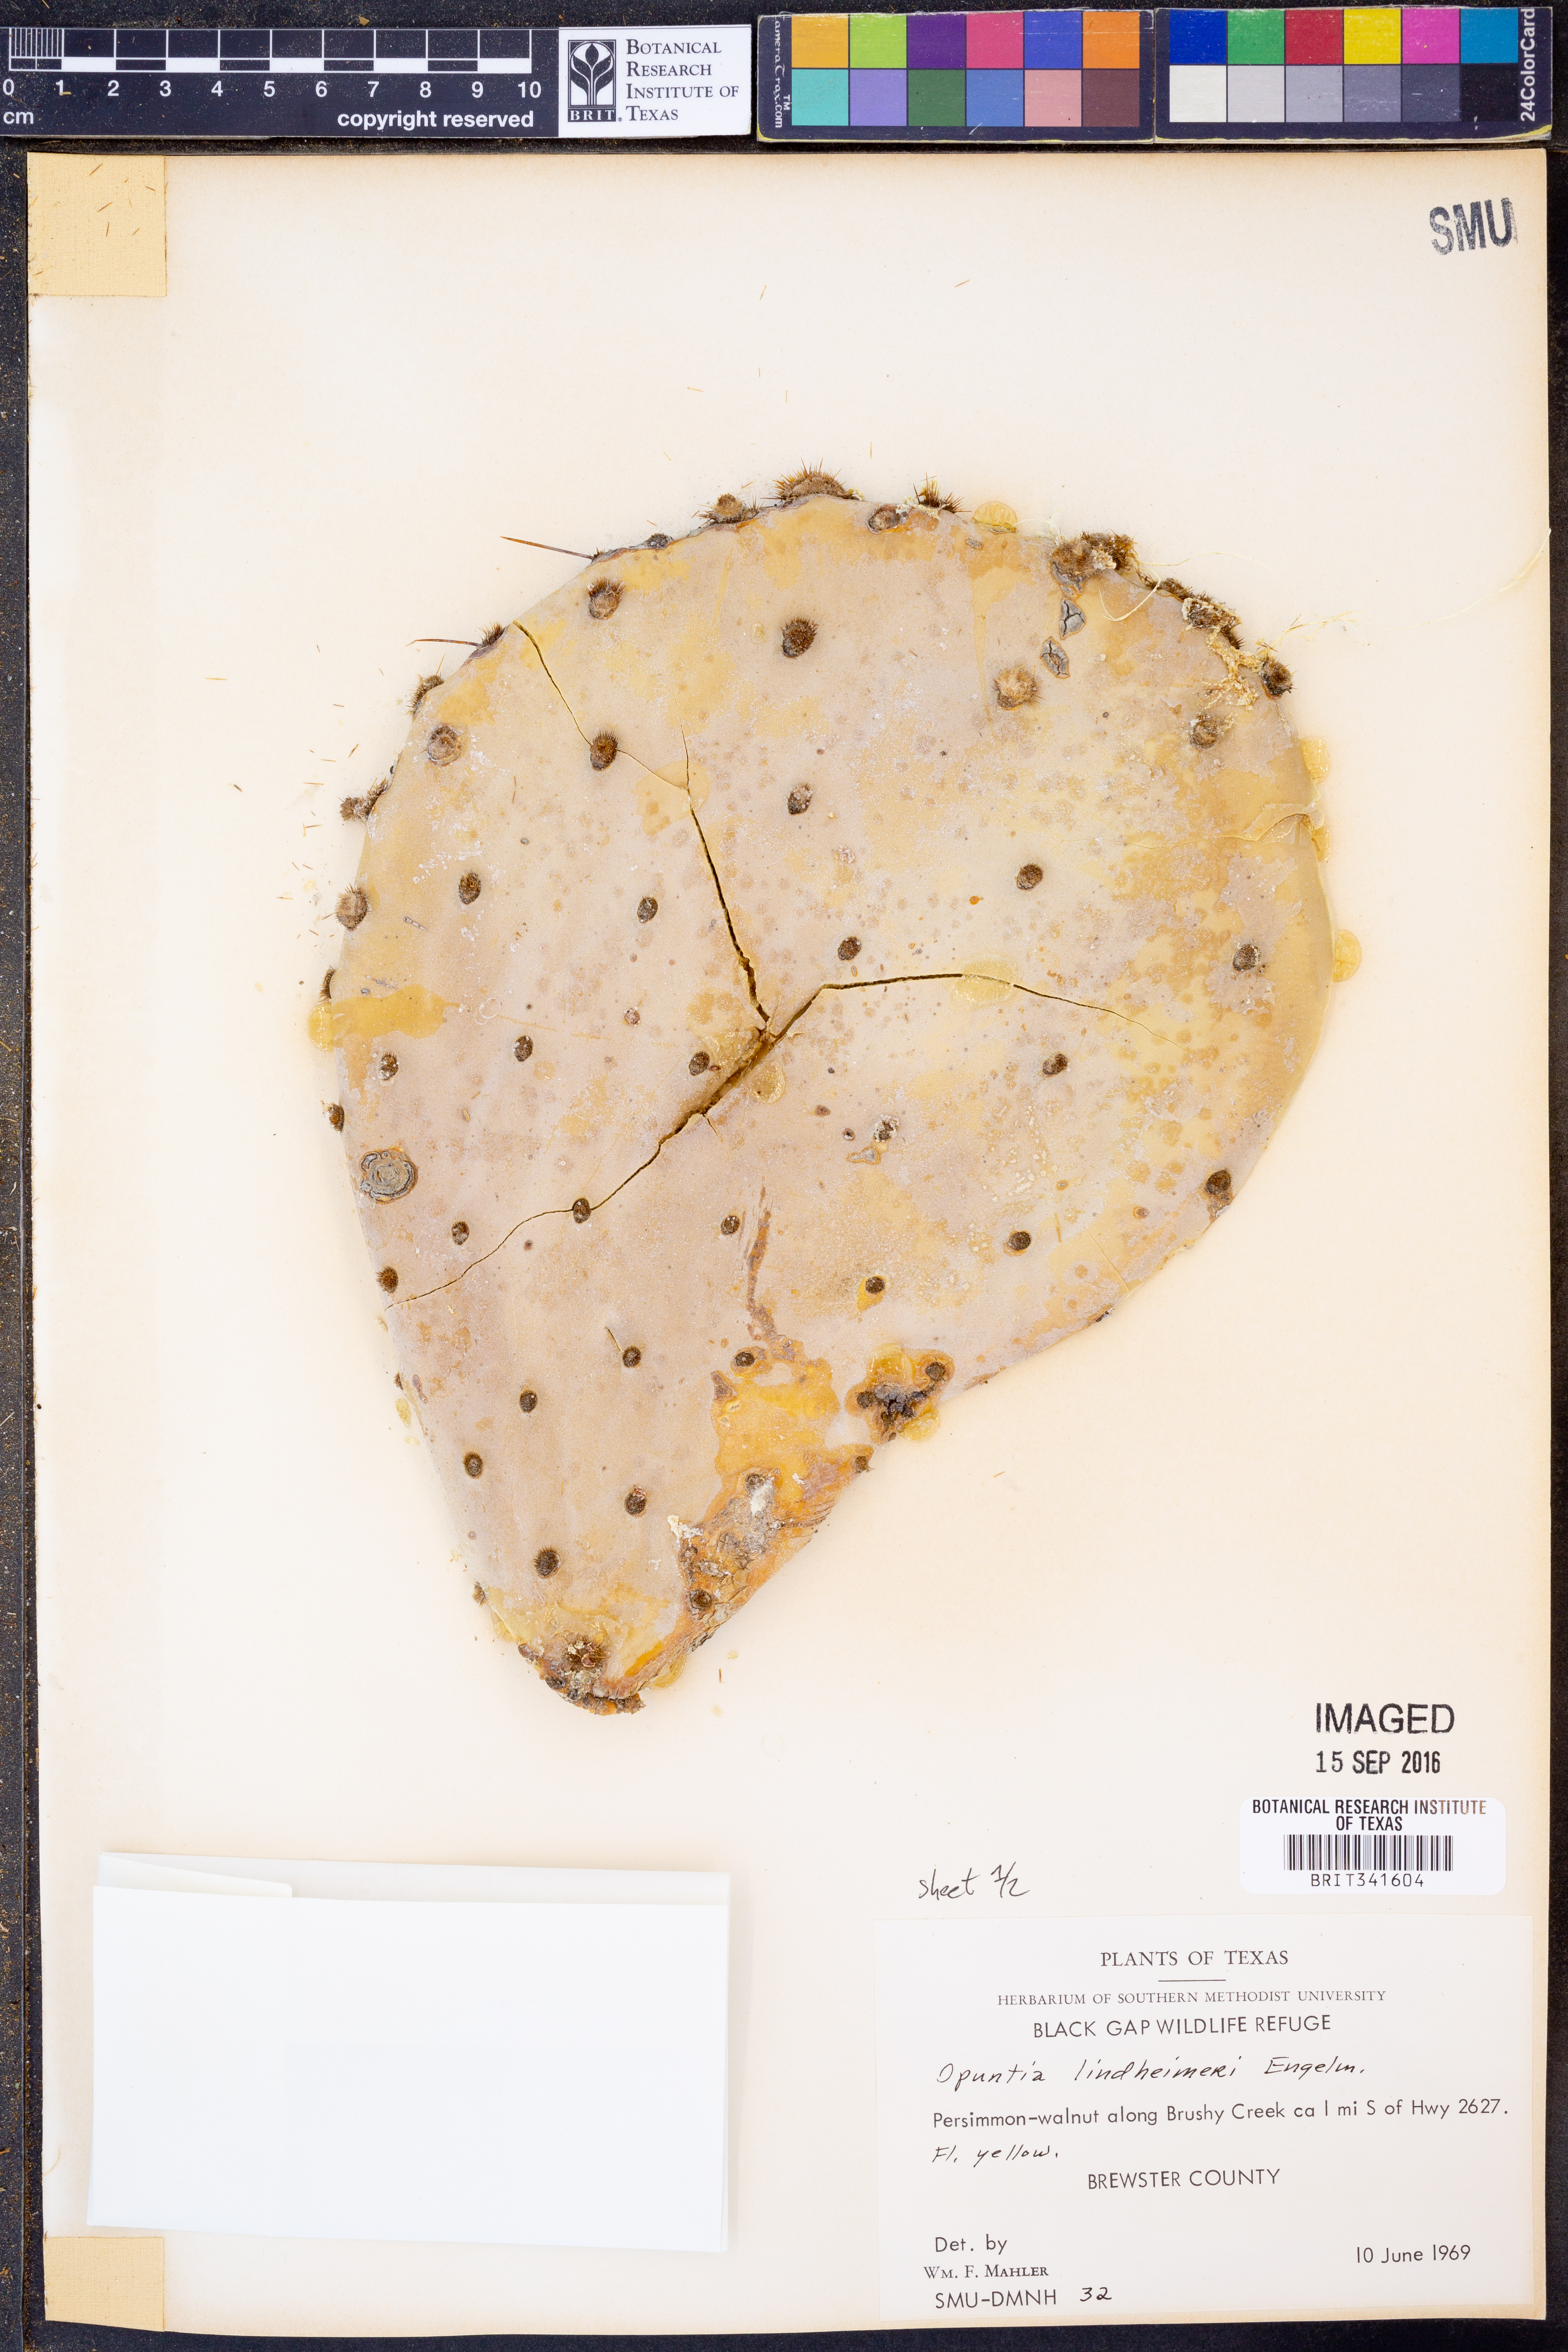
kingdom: Plantae
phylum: Tracheophyta
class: Magnoliopsida
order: Caryophyllales
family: Cactaceae
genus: Opuntia
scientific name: Opuntia engelmannii
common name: Cactus-apple
